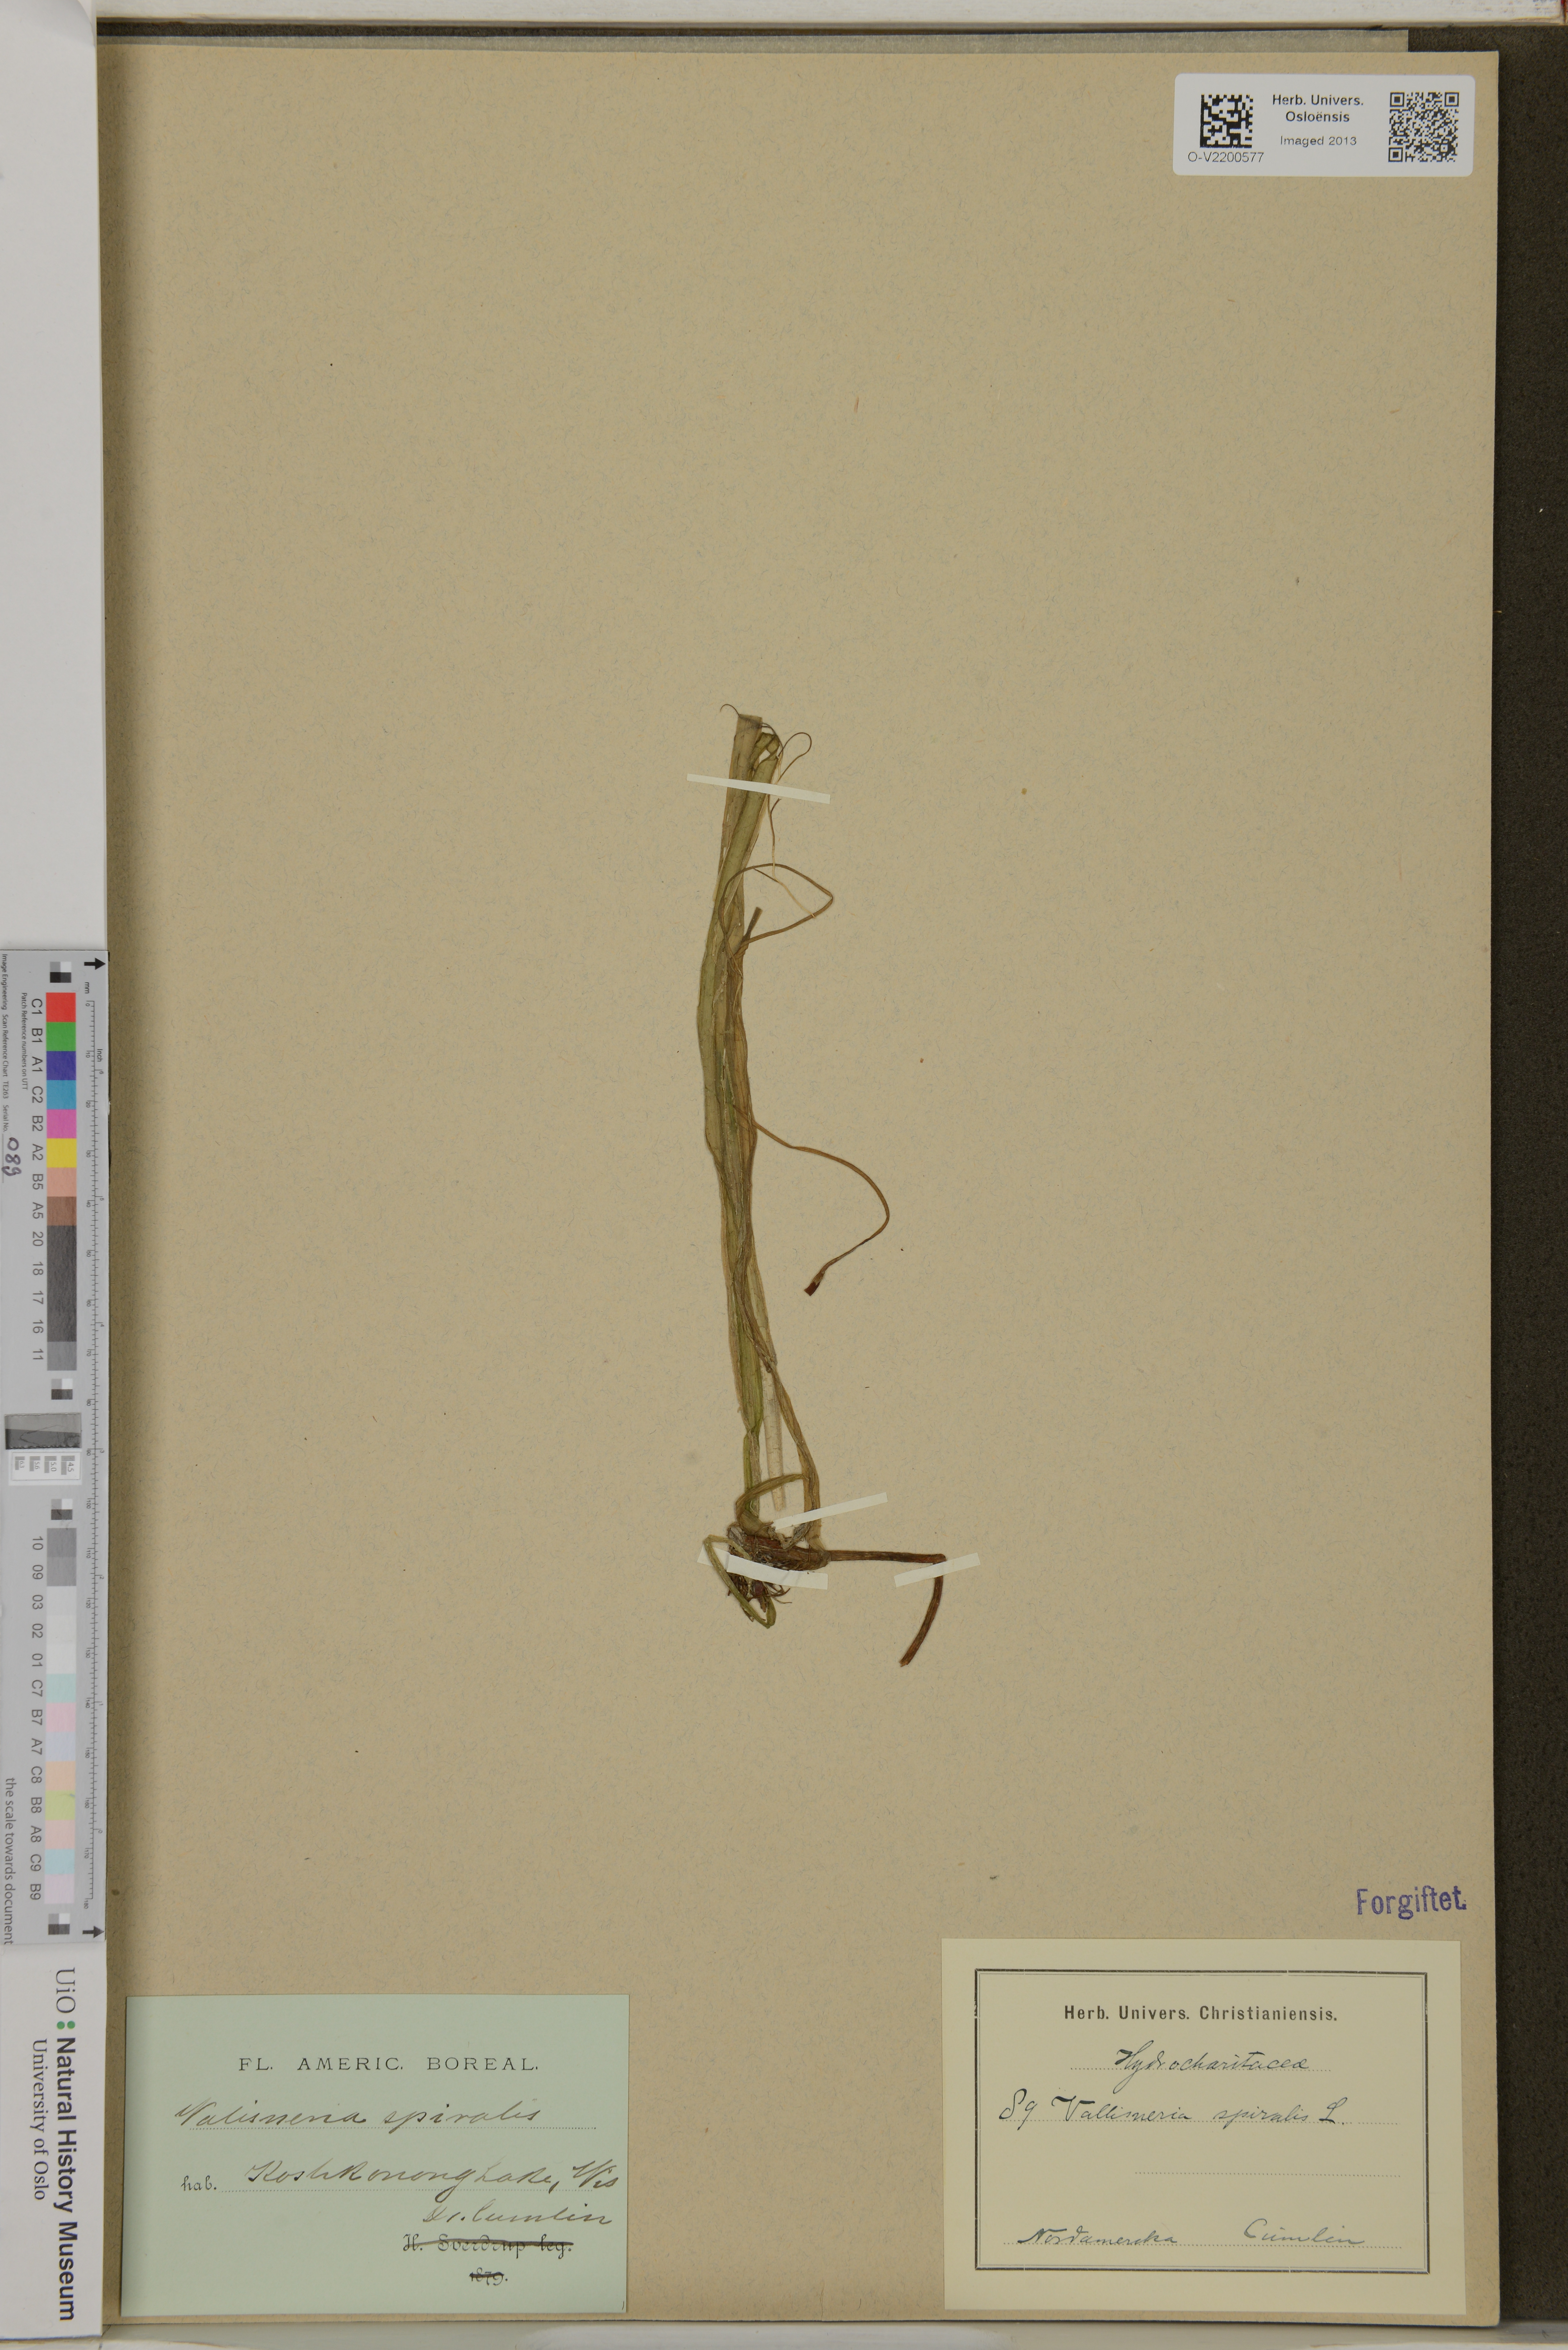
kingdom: Plantae
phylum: Tracheophyta
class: Liliopsida
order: Alismatales
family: Hydrocharitaceae
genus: Vallisneria
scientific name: Vallisneria spiralis
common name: Tapegrass
